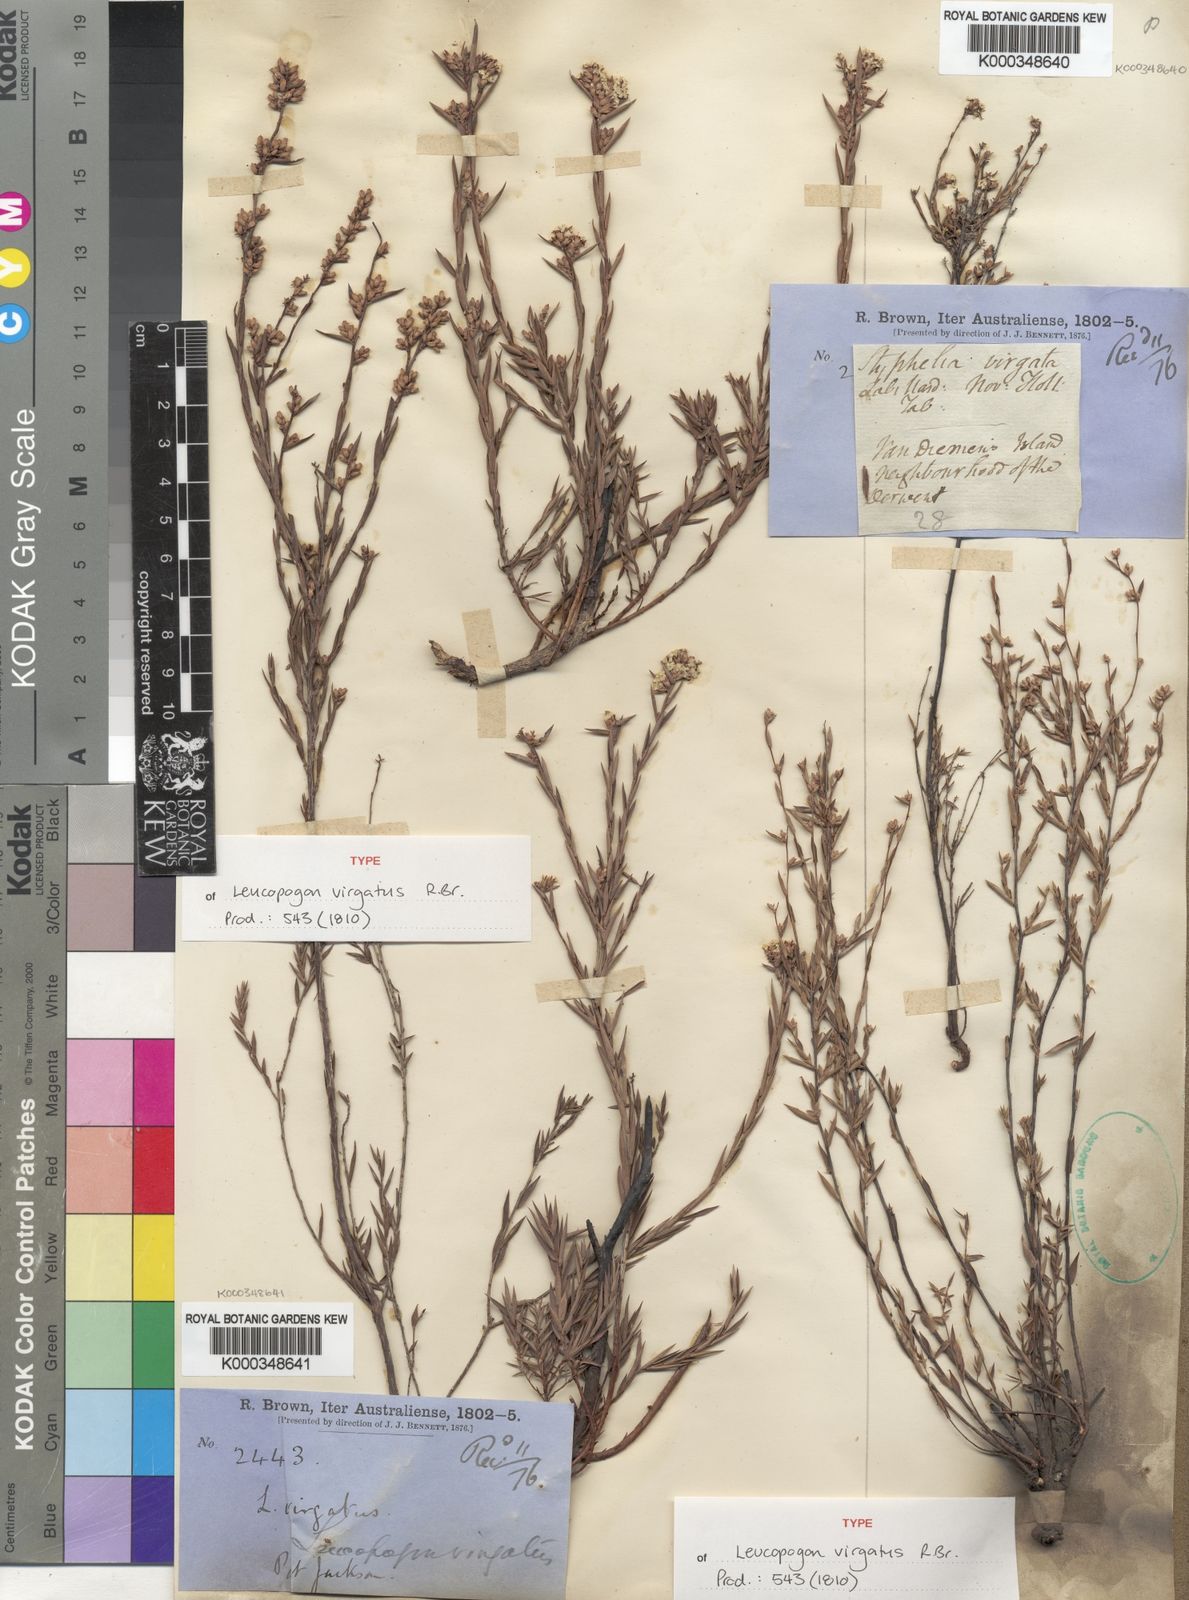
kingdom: Plantae
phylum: Tracheophyta
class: Magnoliopsida
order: Ericales
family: Ericaceae
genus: Leucopogon
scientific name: Leucopogon virgatus
